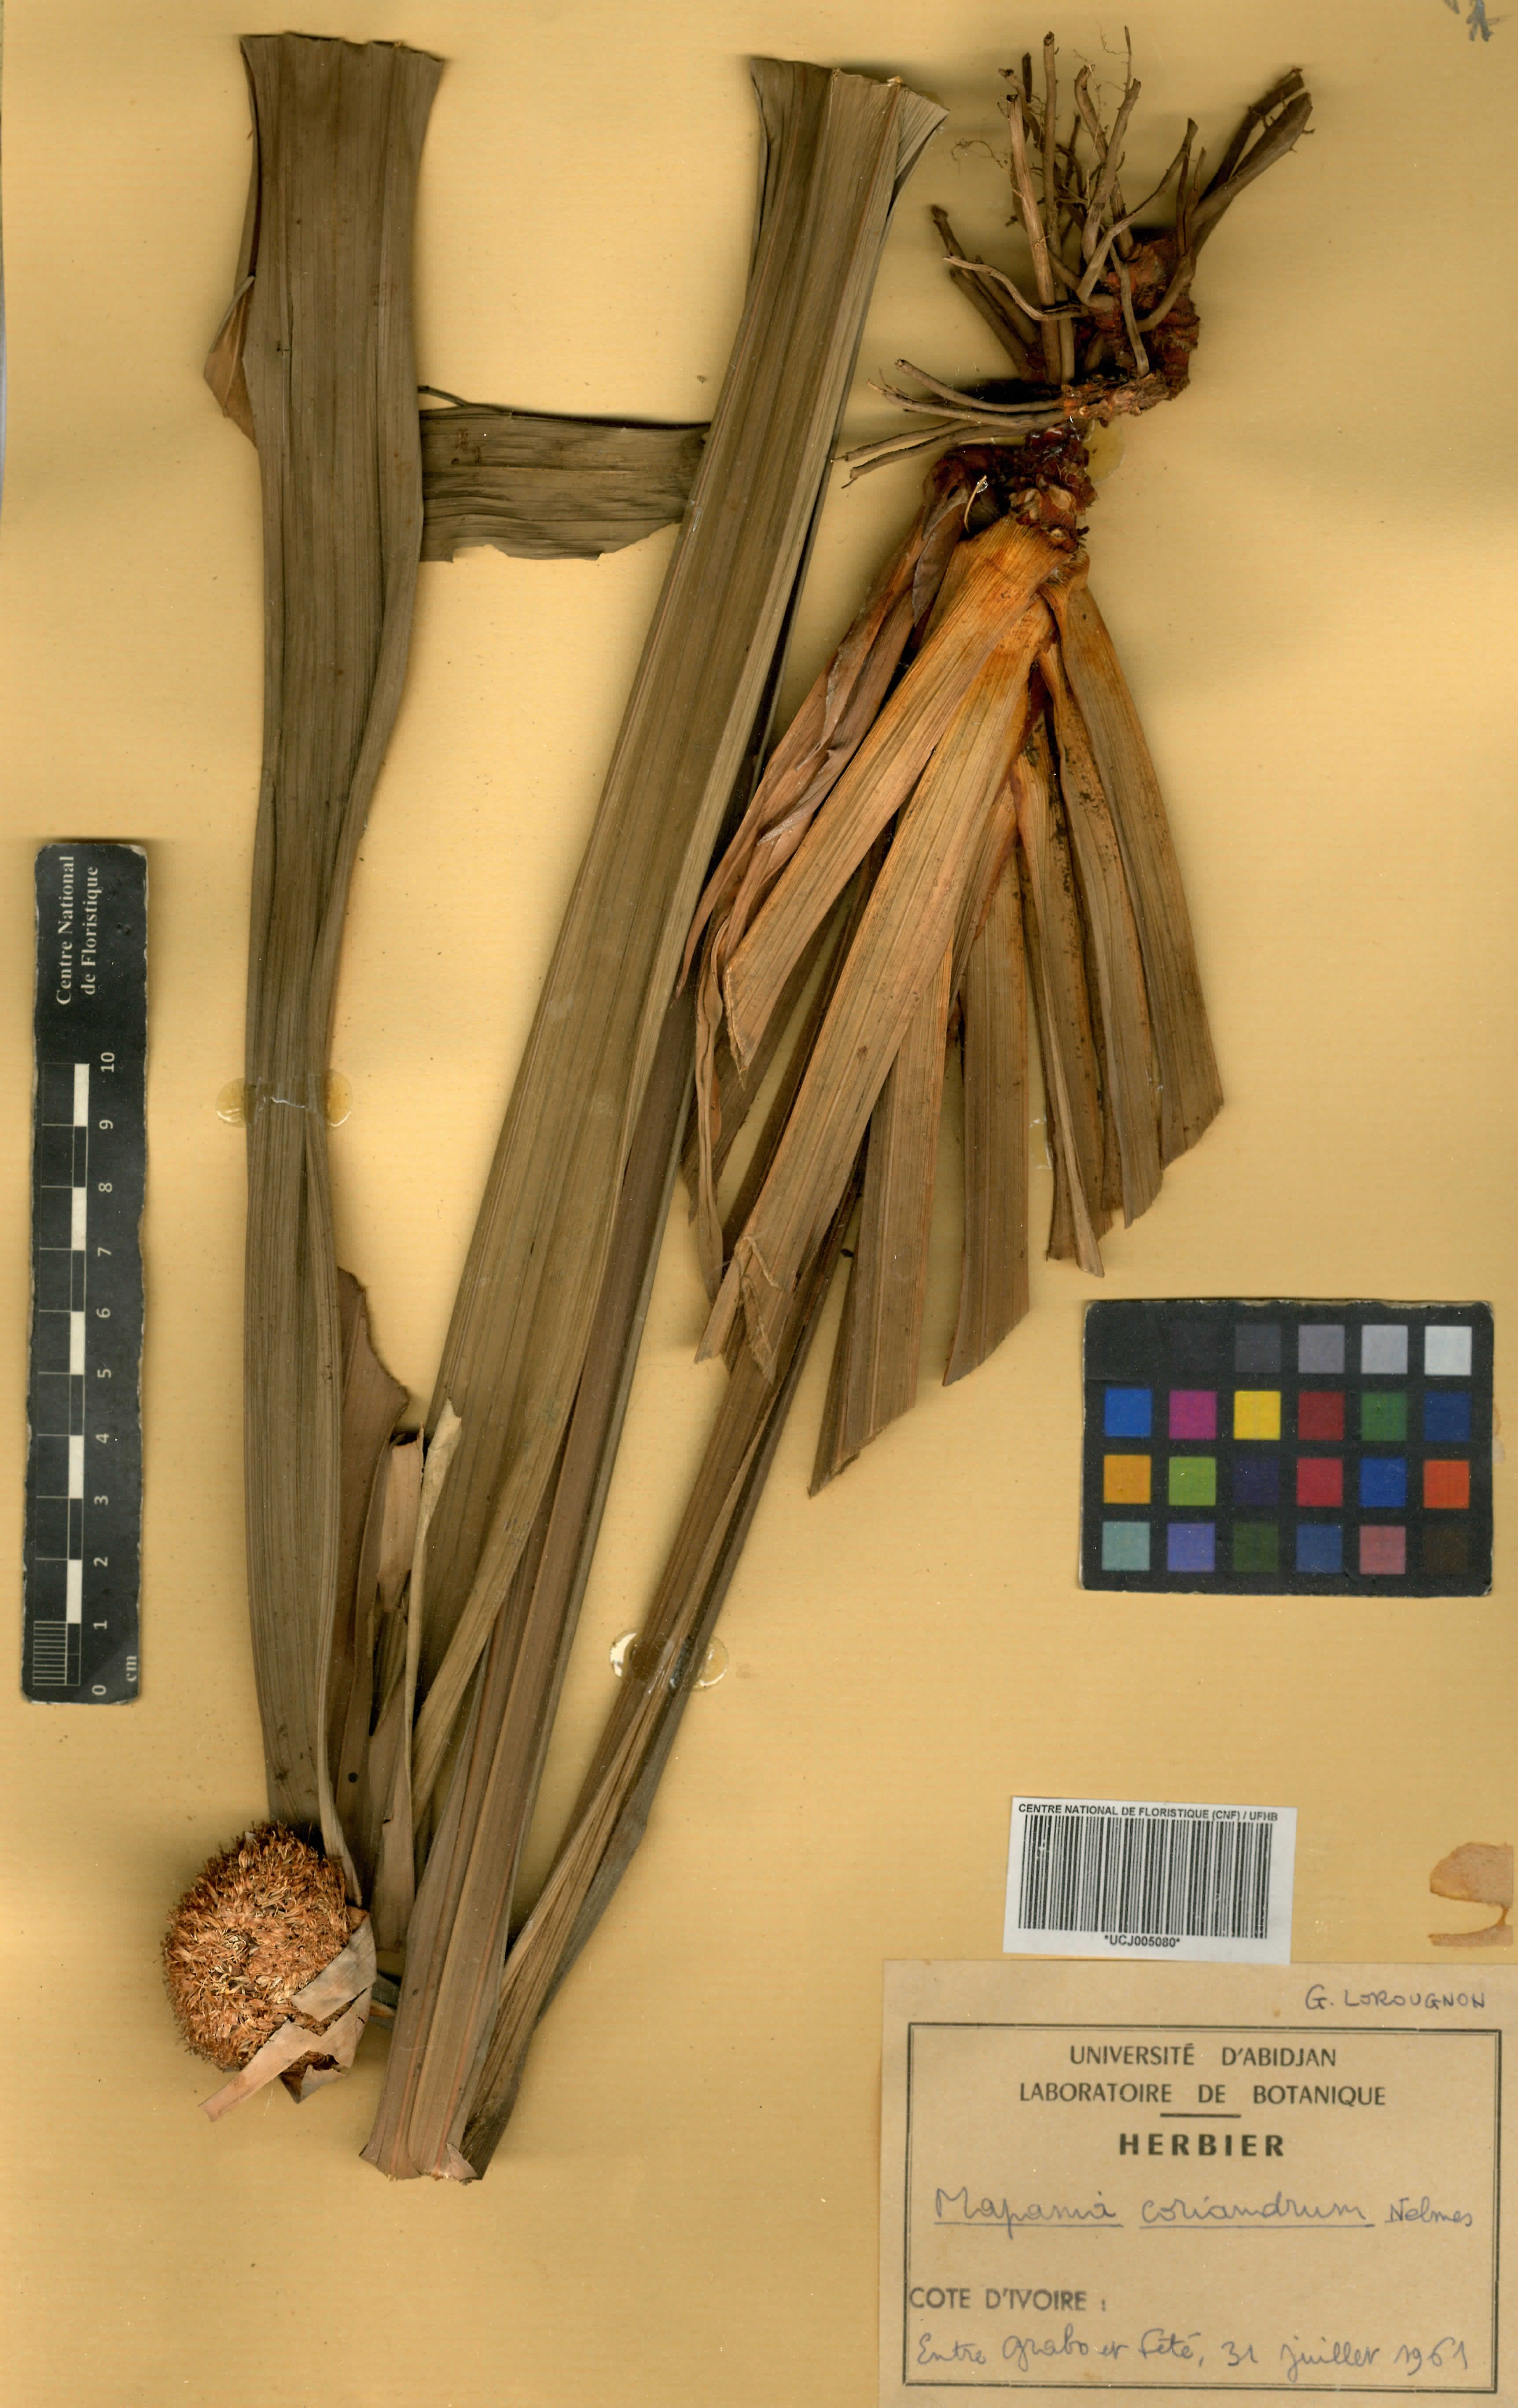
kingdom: Plantae
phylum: Tracheophyta
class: Liliopsida
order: Poales
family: Cyperaceae
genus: Mapania
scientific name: Mapania africana
